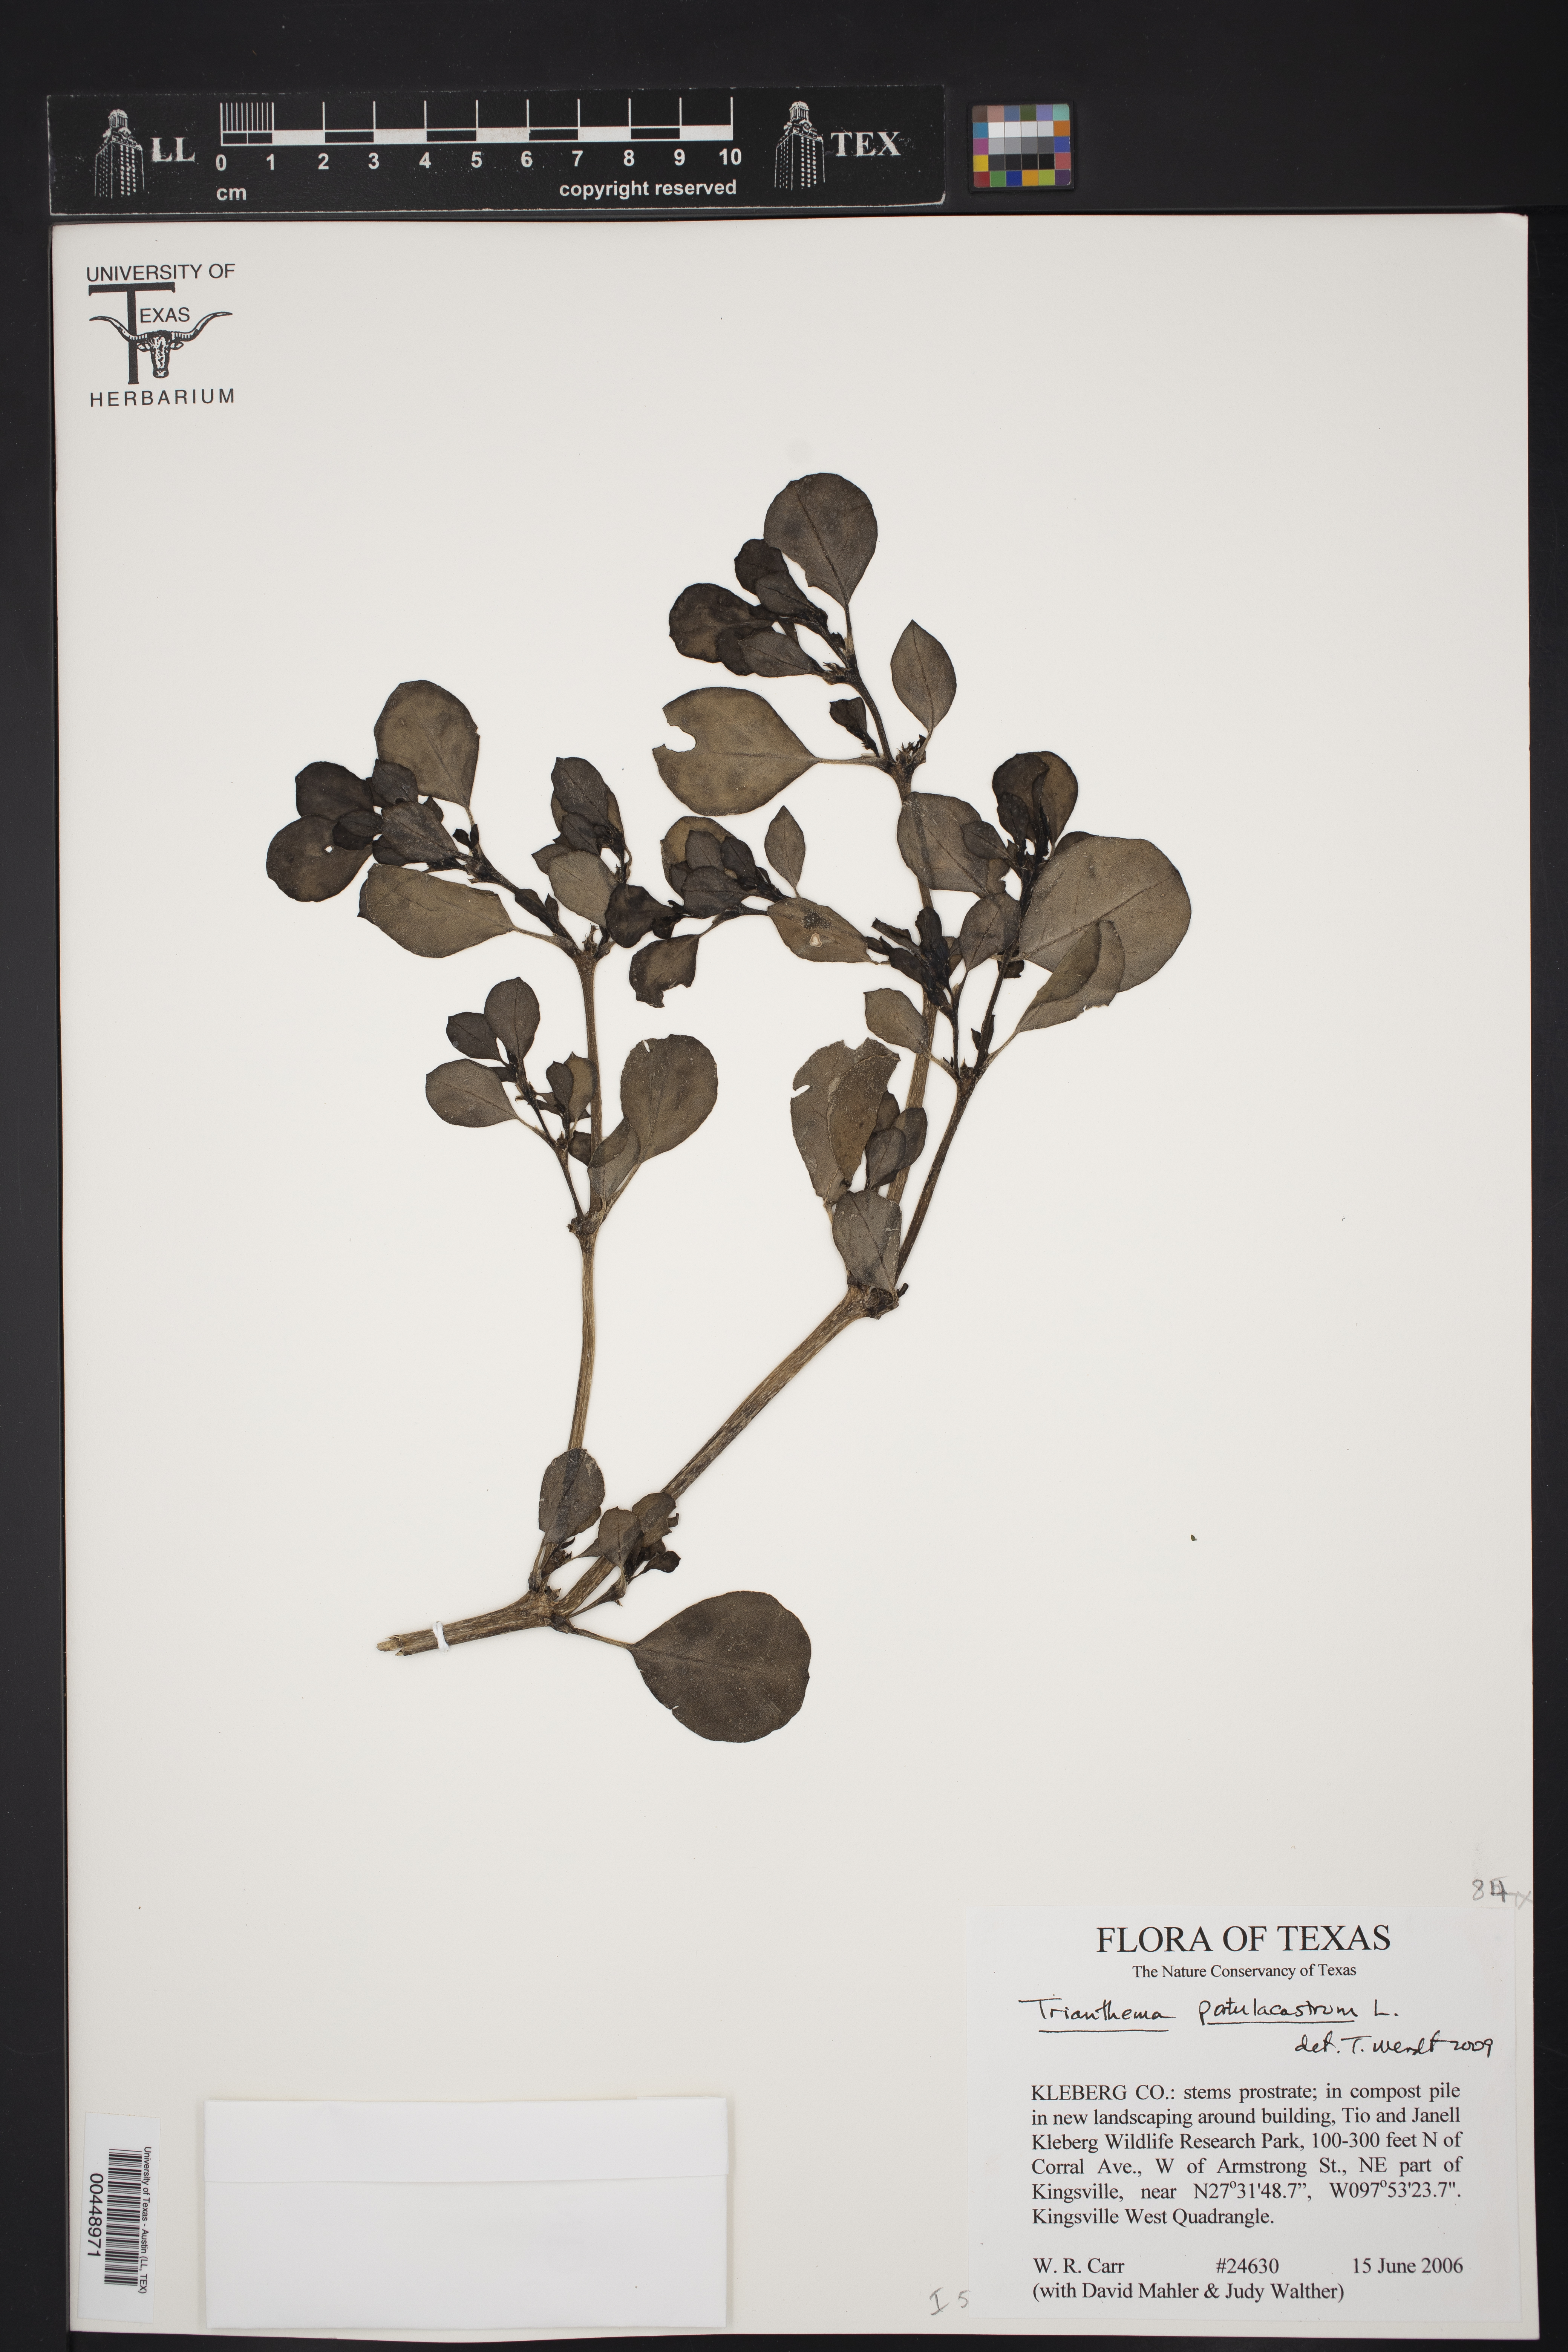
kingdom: Plantae
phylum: Tracheophyta
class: Magnoliopsida
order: Caryophyllales
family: Aizoaceae
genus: Trianthema
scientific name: Trianthema portulacastrum
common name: Desert horsepurslane
